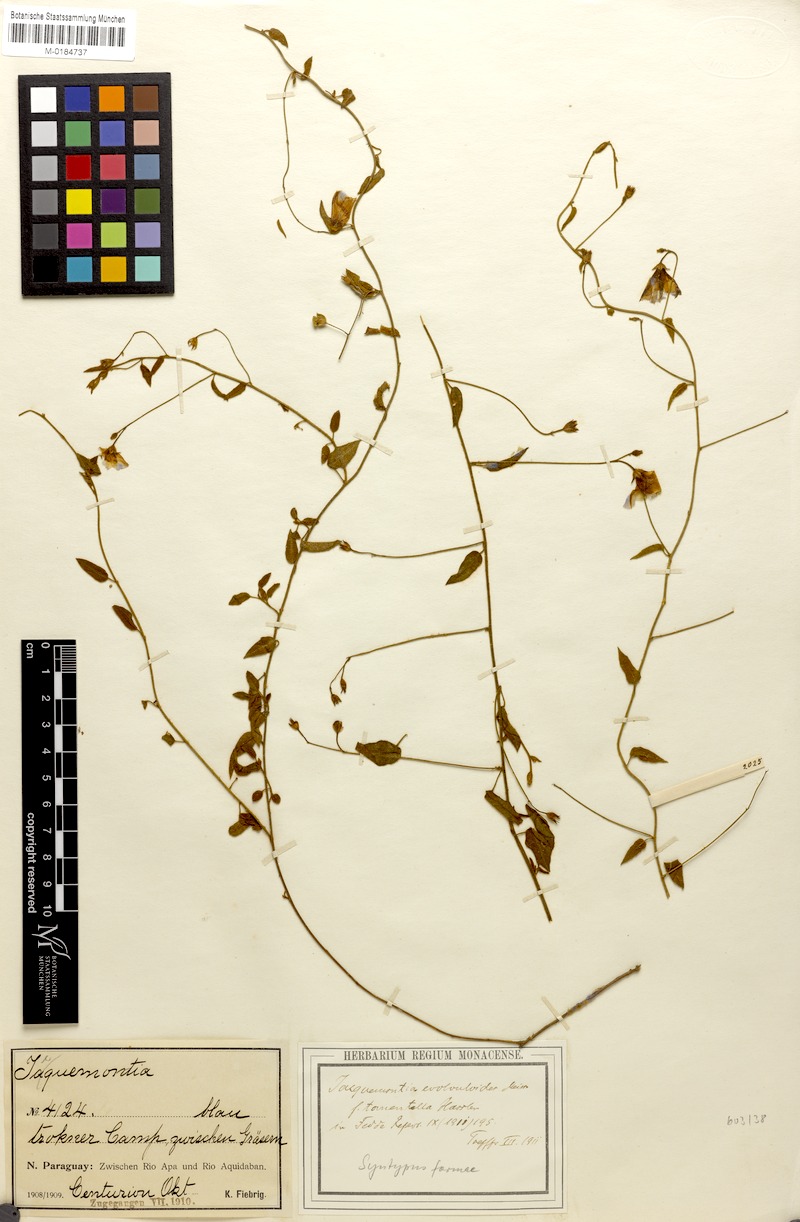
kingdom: Plantae
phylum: Tracheophyta
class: Magnoliopsida
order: Solanales
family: Convolvulaceae
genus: Jacquemontia
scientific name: Jacquemontia evolvuloides
